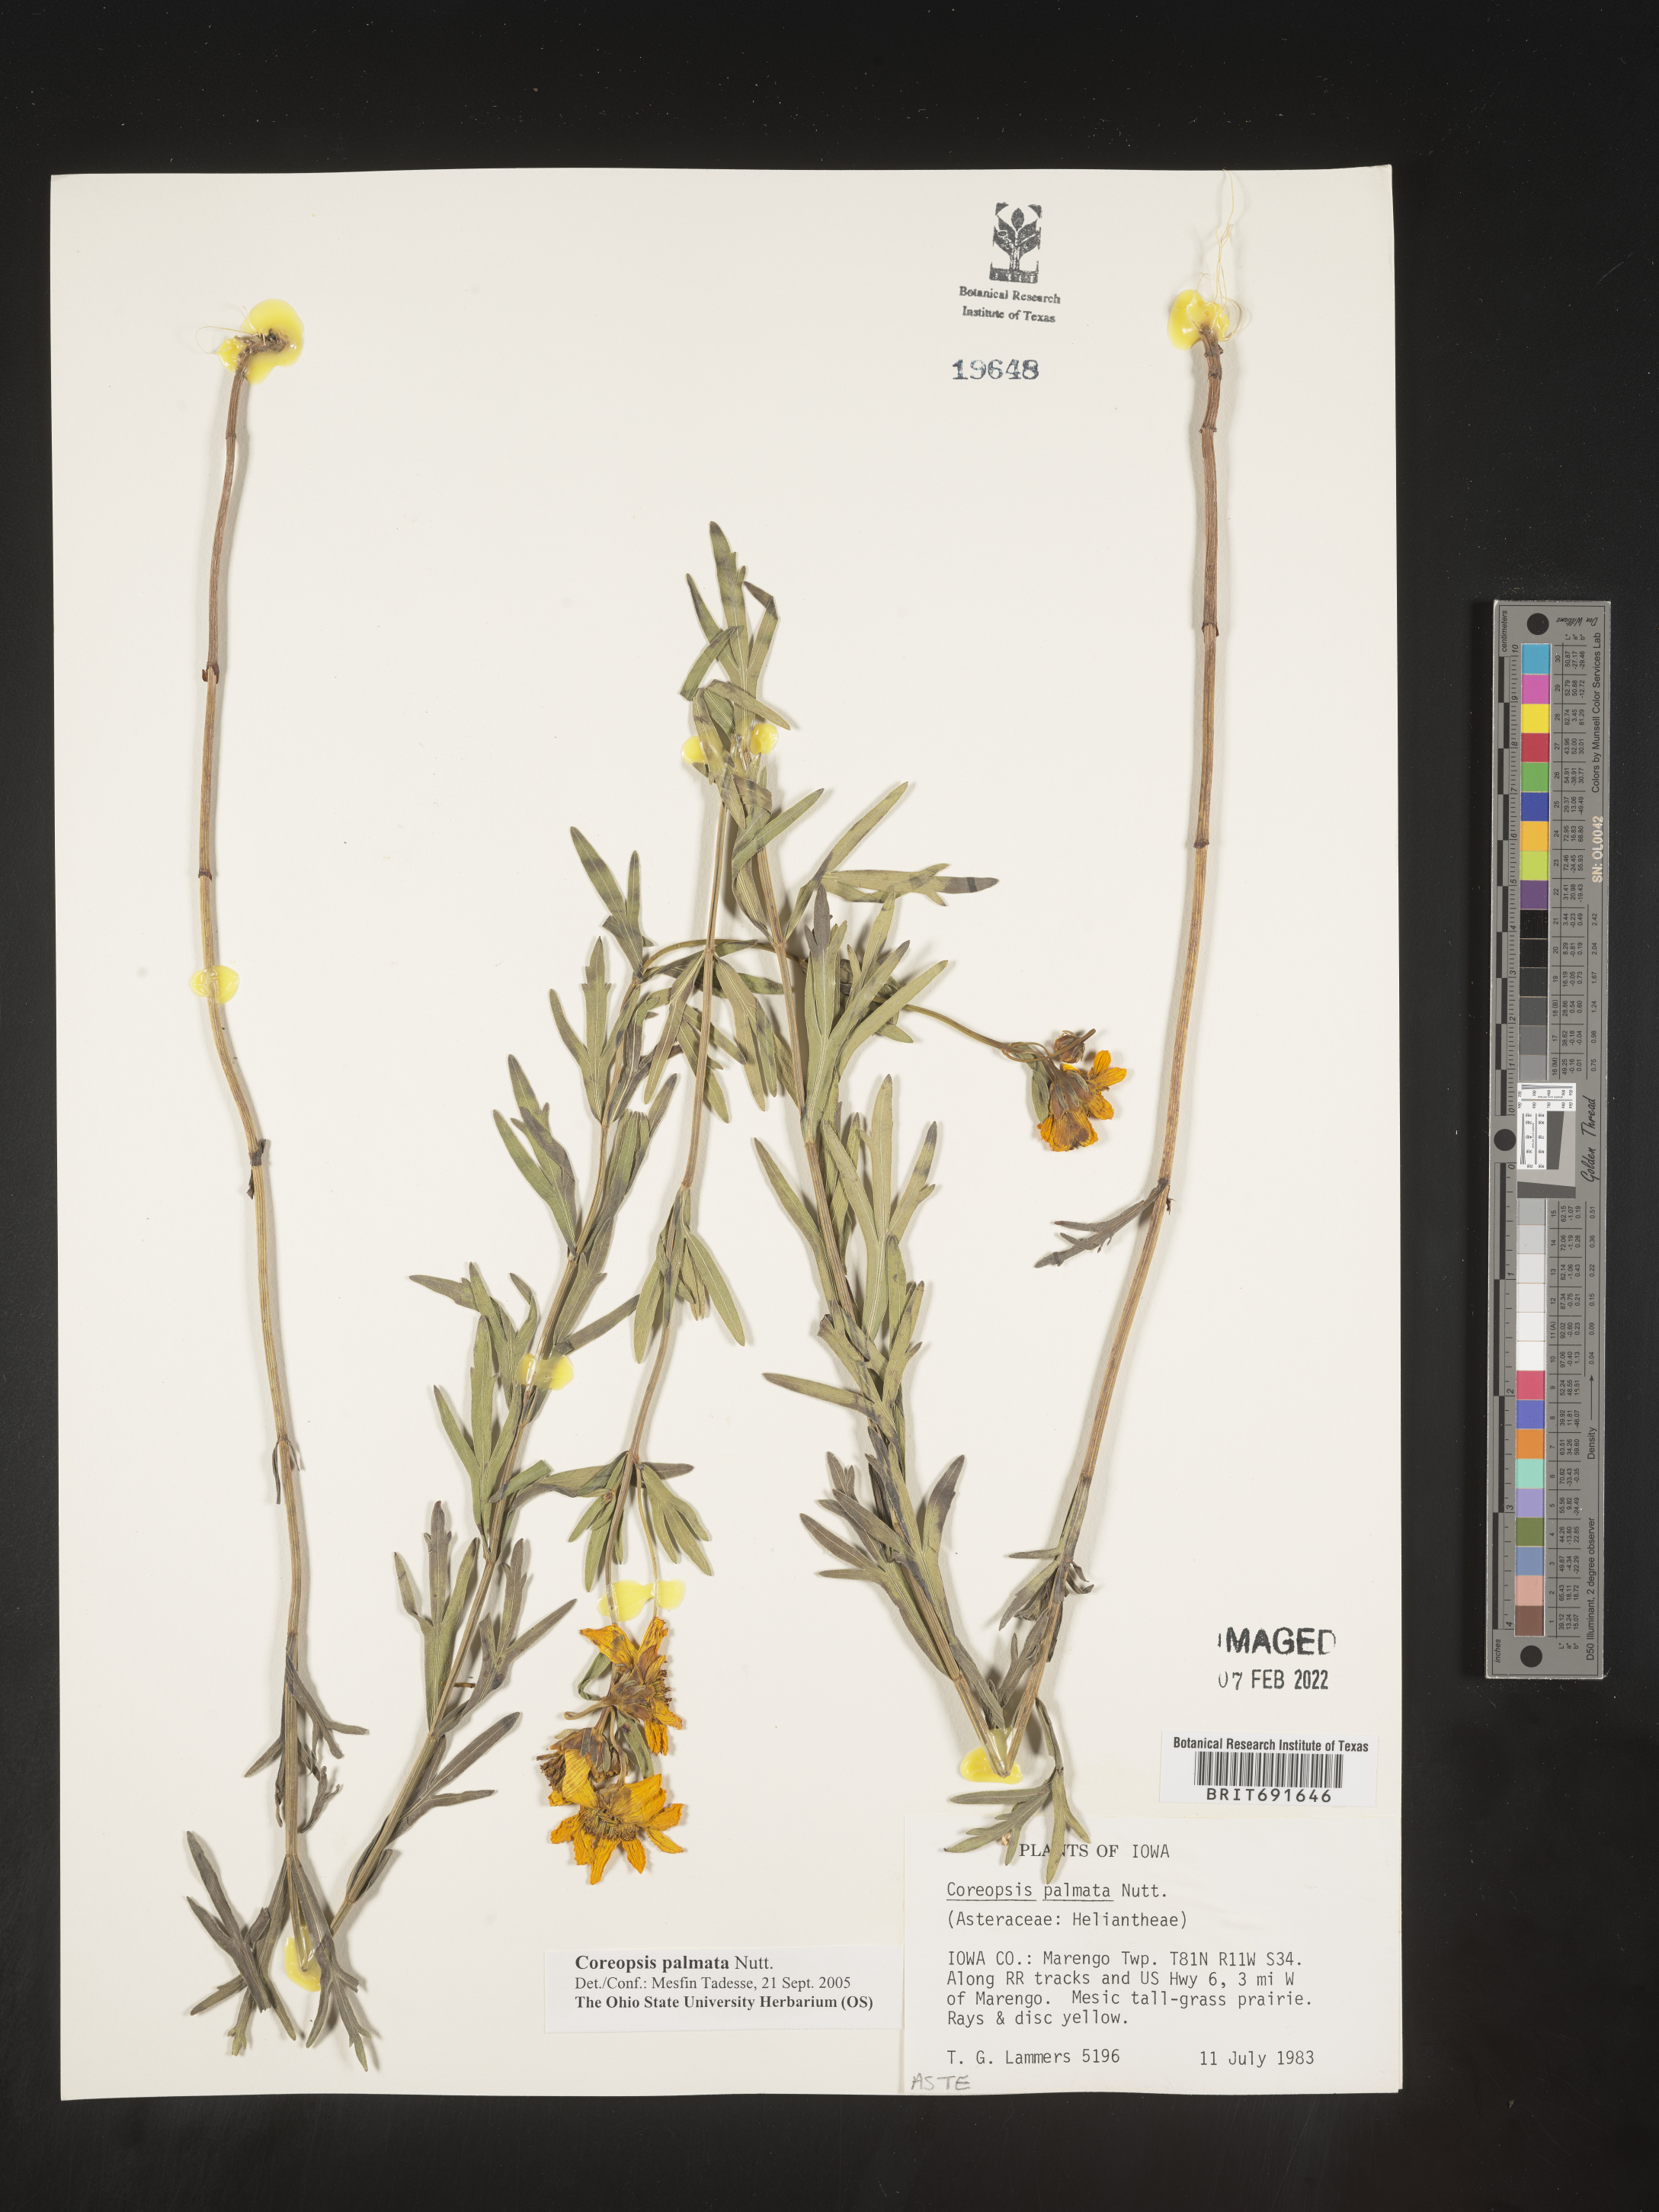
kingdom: Plantae
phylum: Tracheophyta
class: Magnoliopsida
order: Asterales
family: Asteraceae
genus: Coreopsis
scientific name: Coreopsis palmata
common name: Prairie coreopsis
